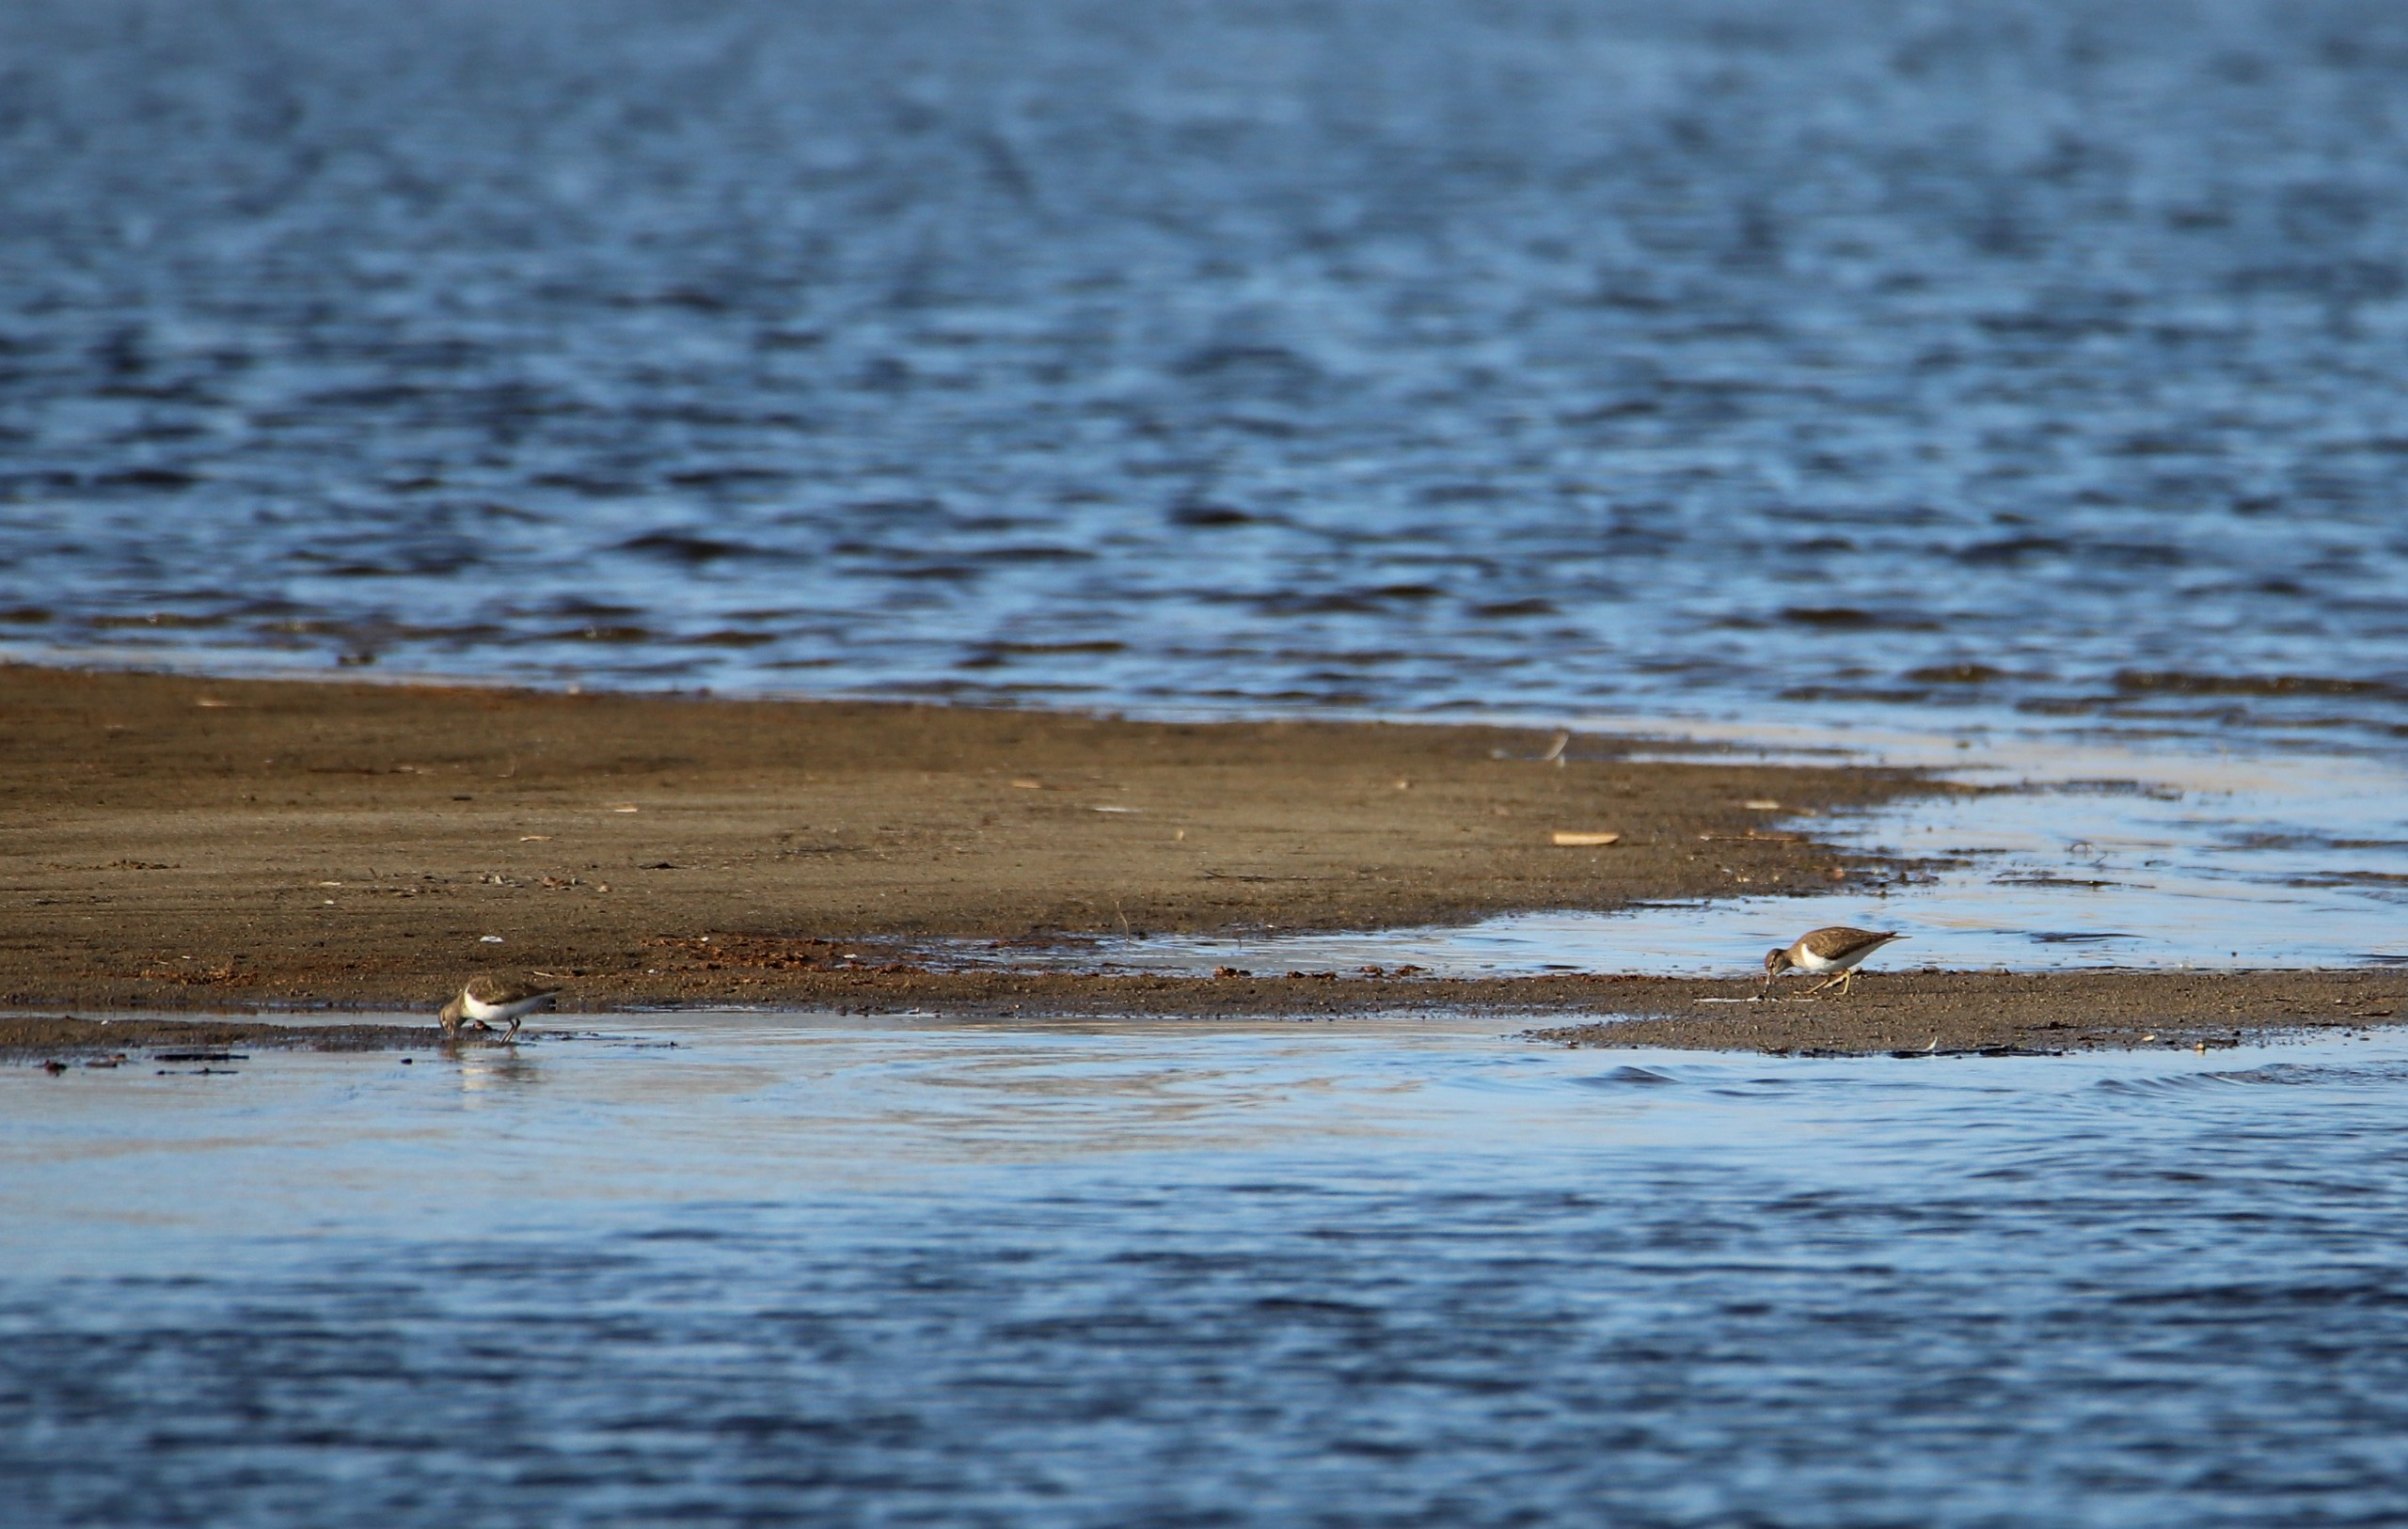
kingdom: Animalia
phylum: Chordata
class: Aves
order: Charadriiformes
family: Scolopacidae
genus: Actitis
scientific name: Actitis hypoleucos
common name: Mudderklire
